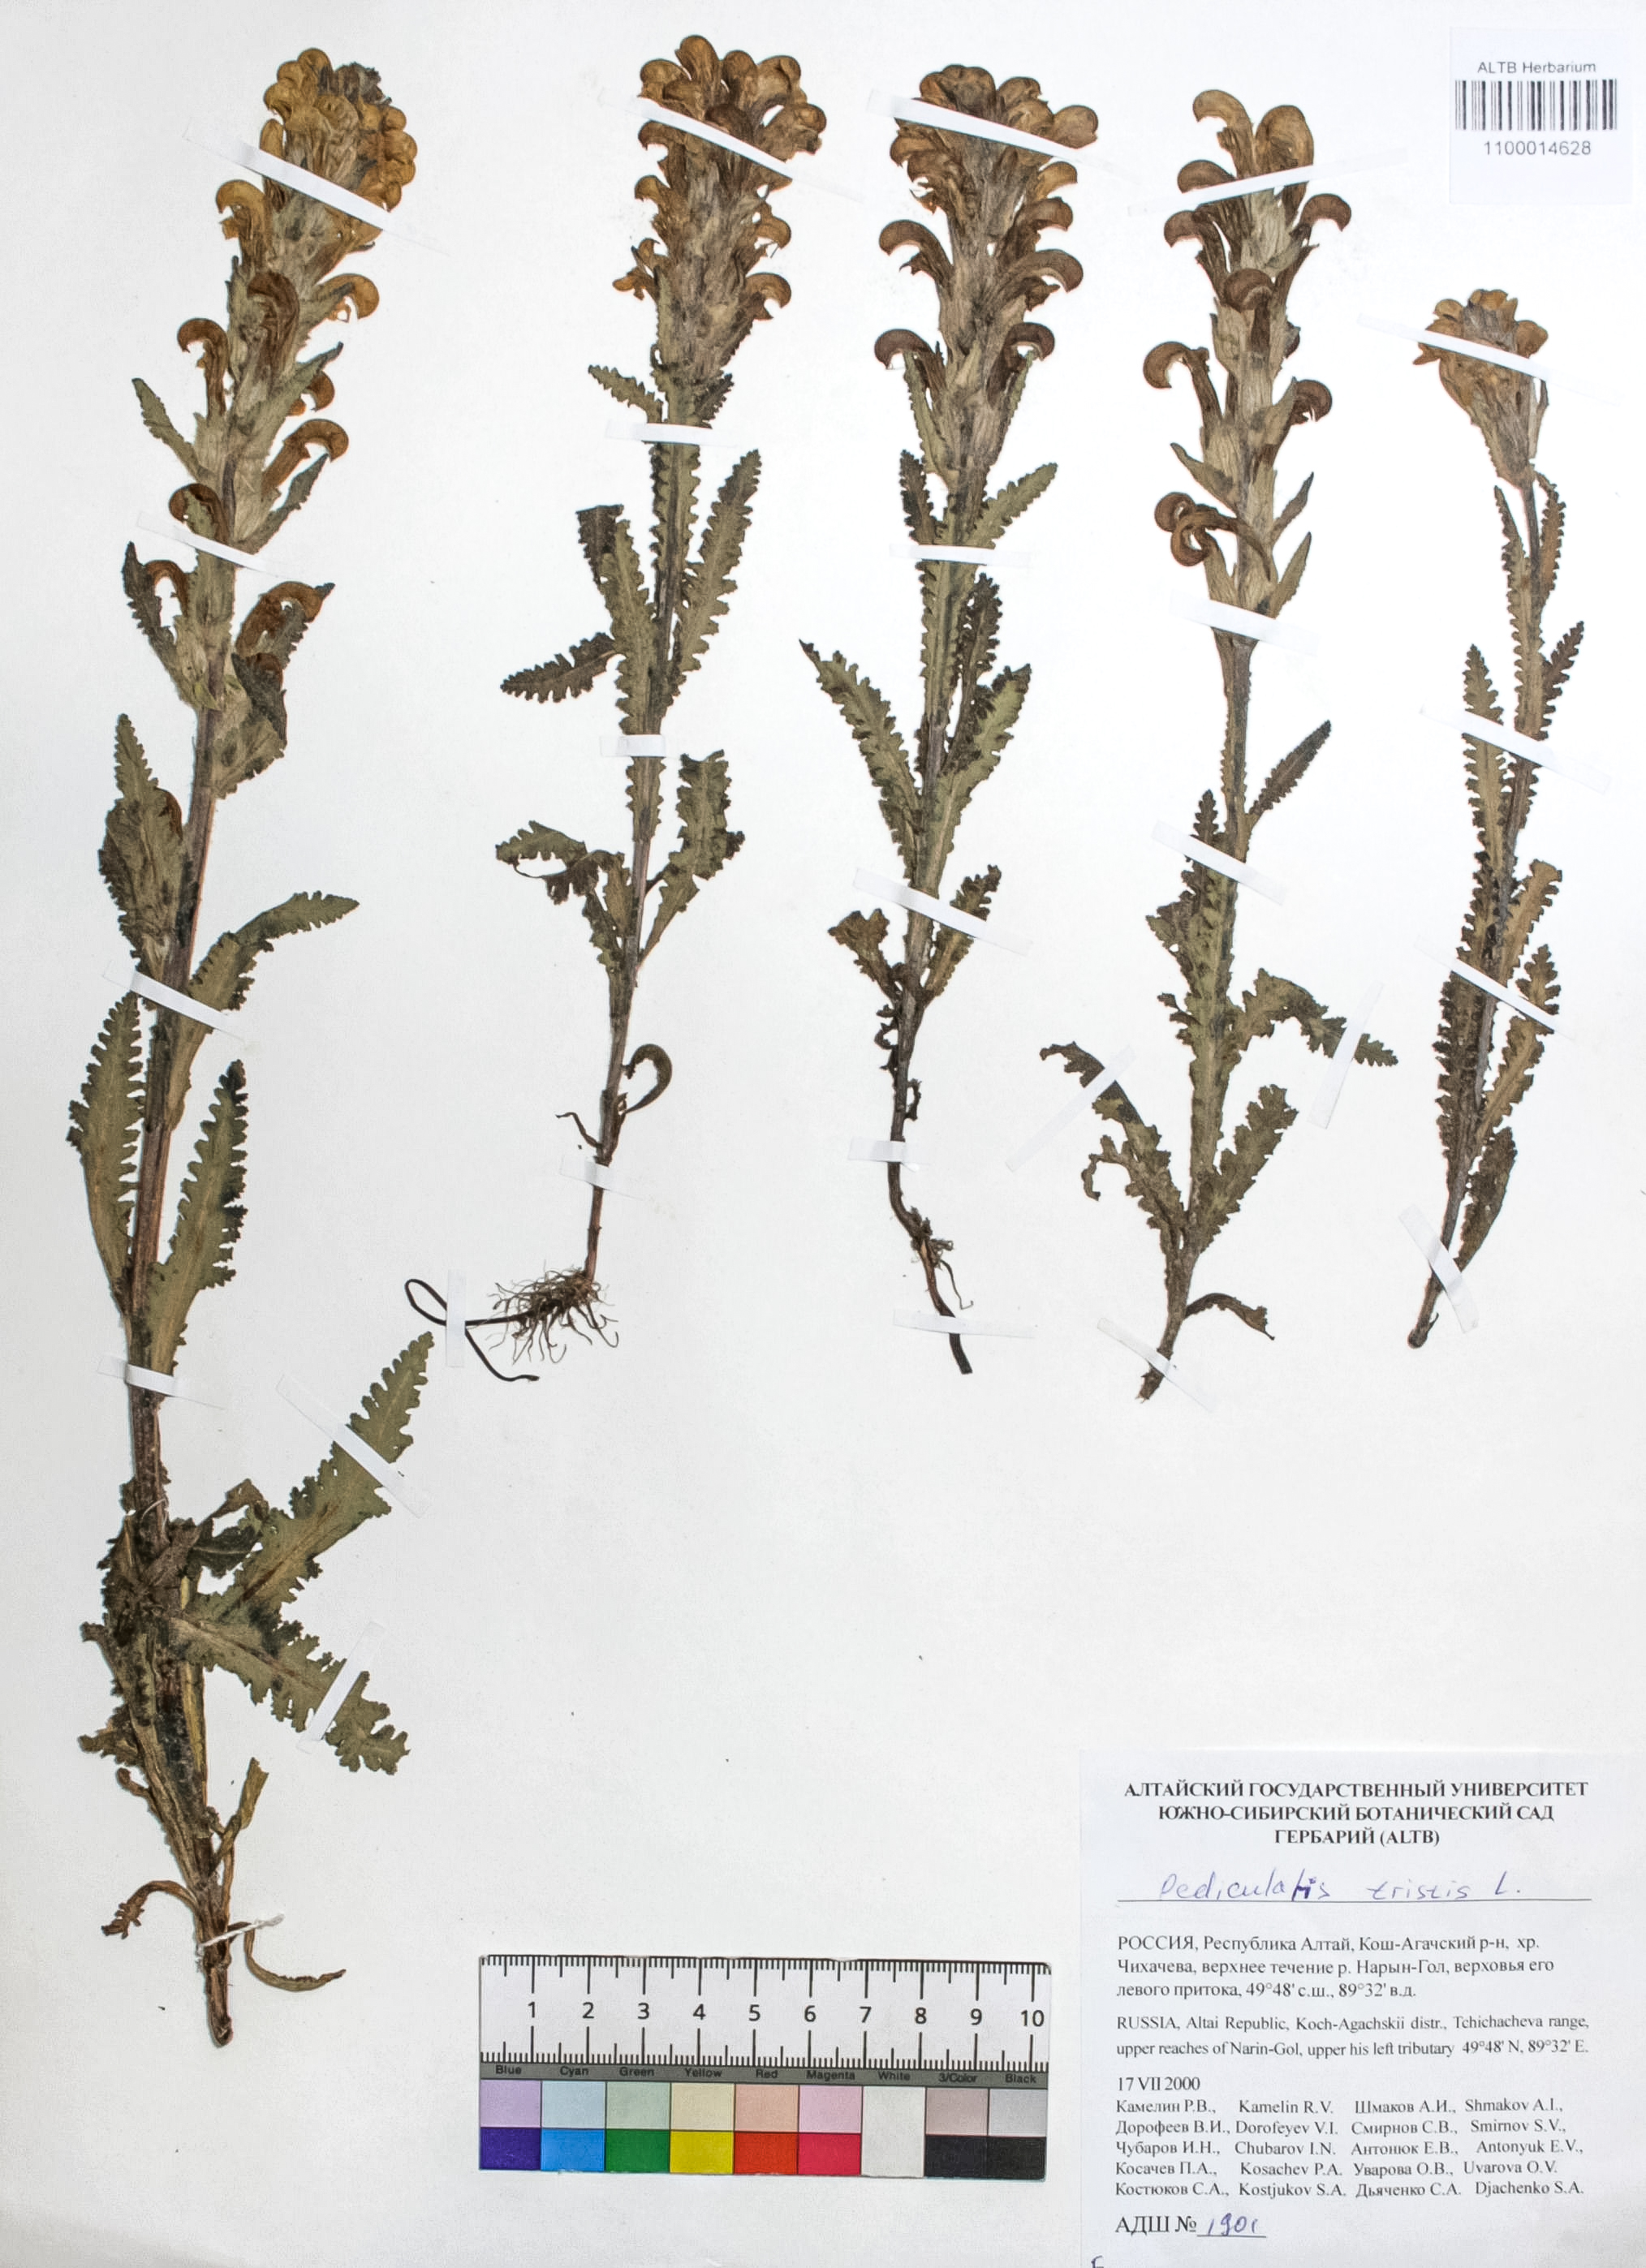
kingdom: Plantae
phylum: Tracheophyta
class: Magnoliopsida
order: Lamiales
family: Orobanchaceae
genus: Pedicularis
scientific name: Pedicularis tristis
